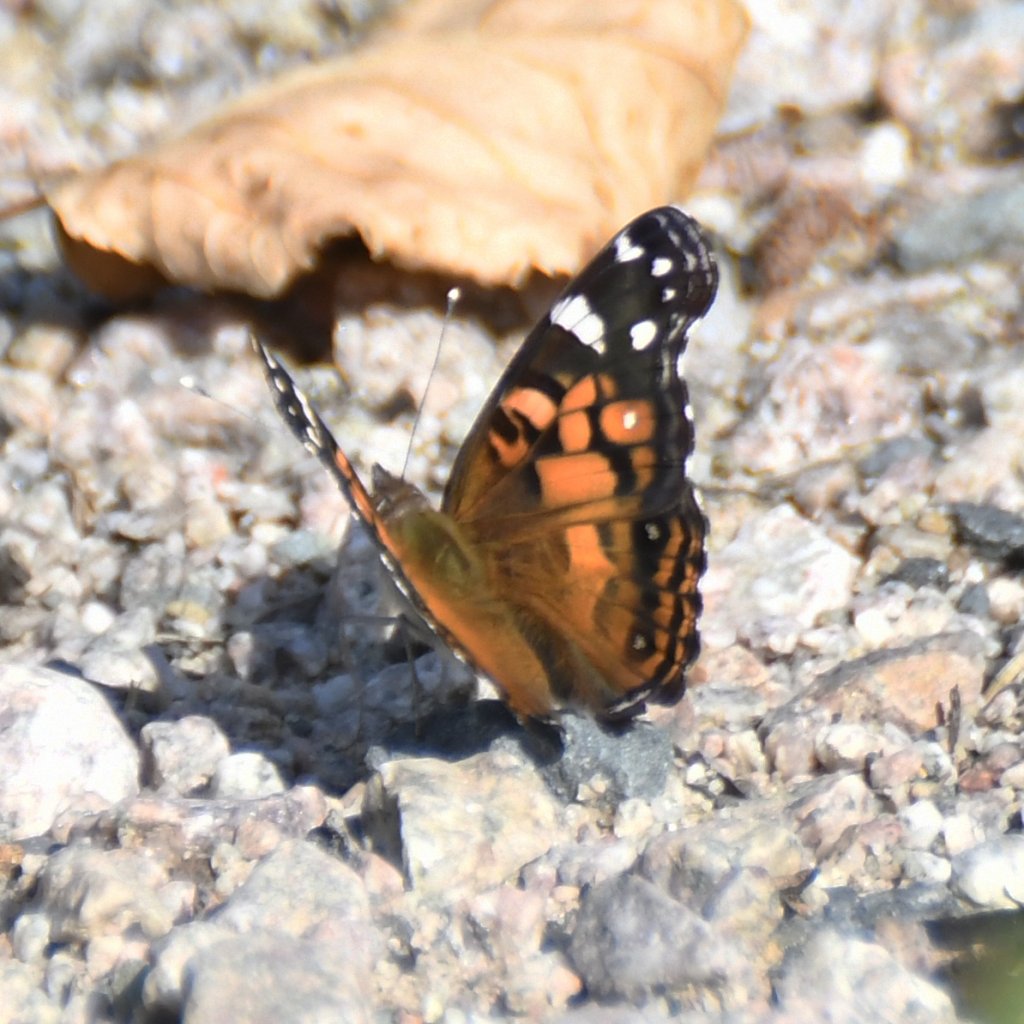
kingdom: Animalia
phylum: Arthropoda
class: Insecta
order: Lepidoptera
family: Nymphalidae
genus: Vanessa
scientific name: Vanessa virginiensis
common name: American Lady
